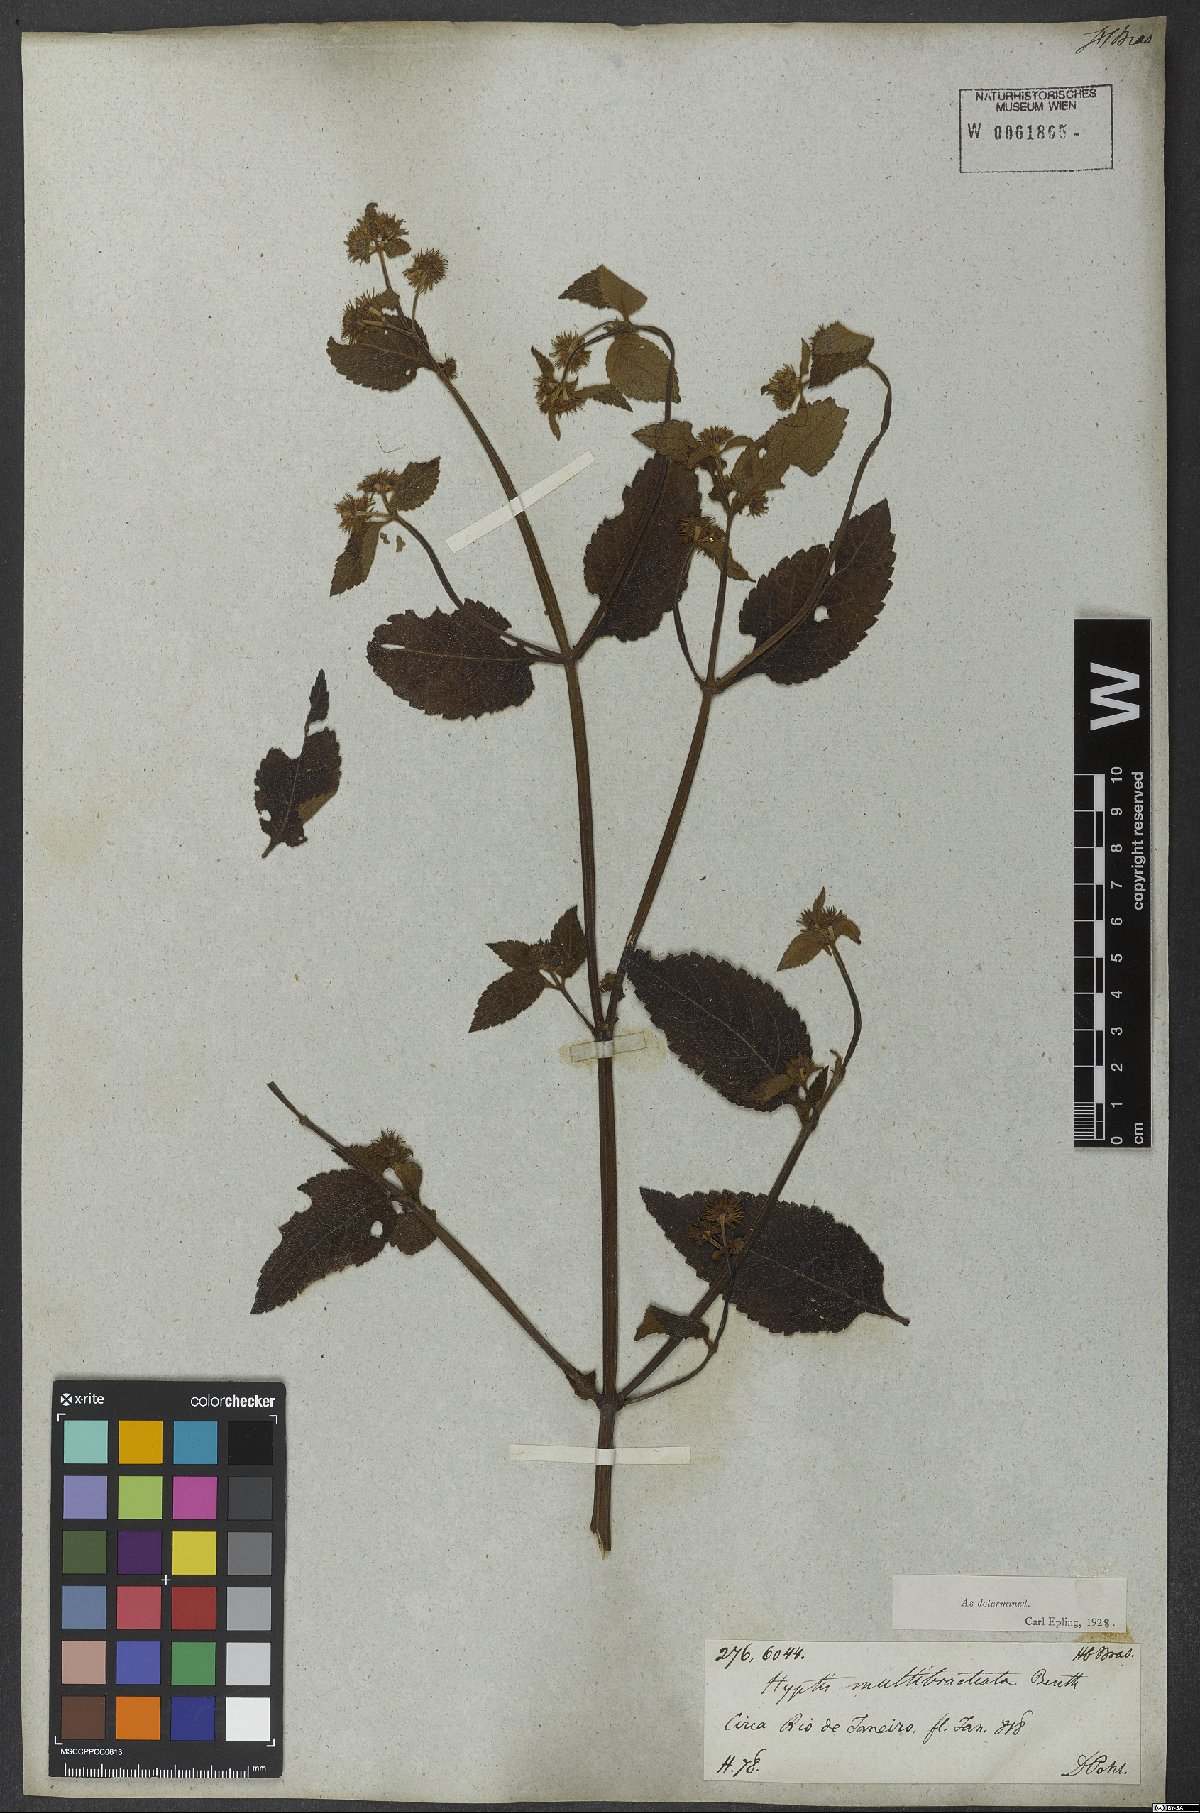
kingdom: Plantae
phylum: Tracheophyta
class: Magnoliopsida
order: Lamiales
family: Lamiaceae
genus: Hyptis
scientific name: Hyptis multibracteata
